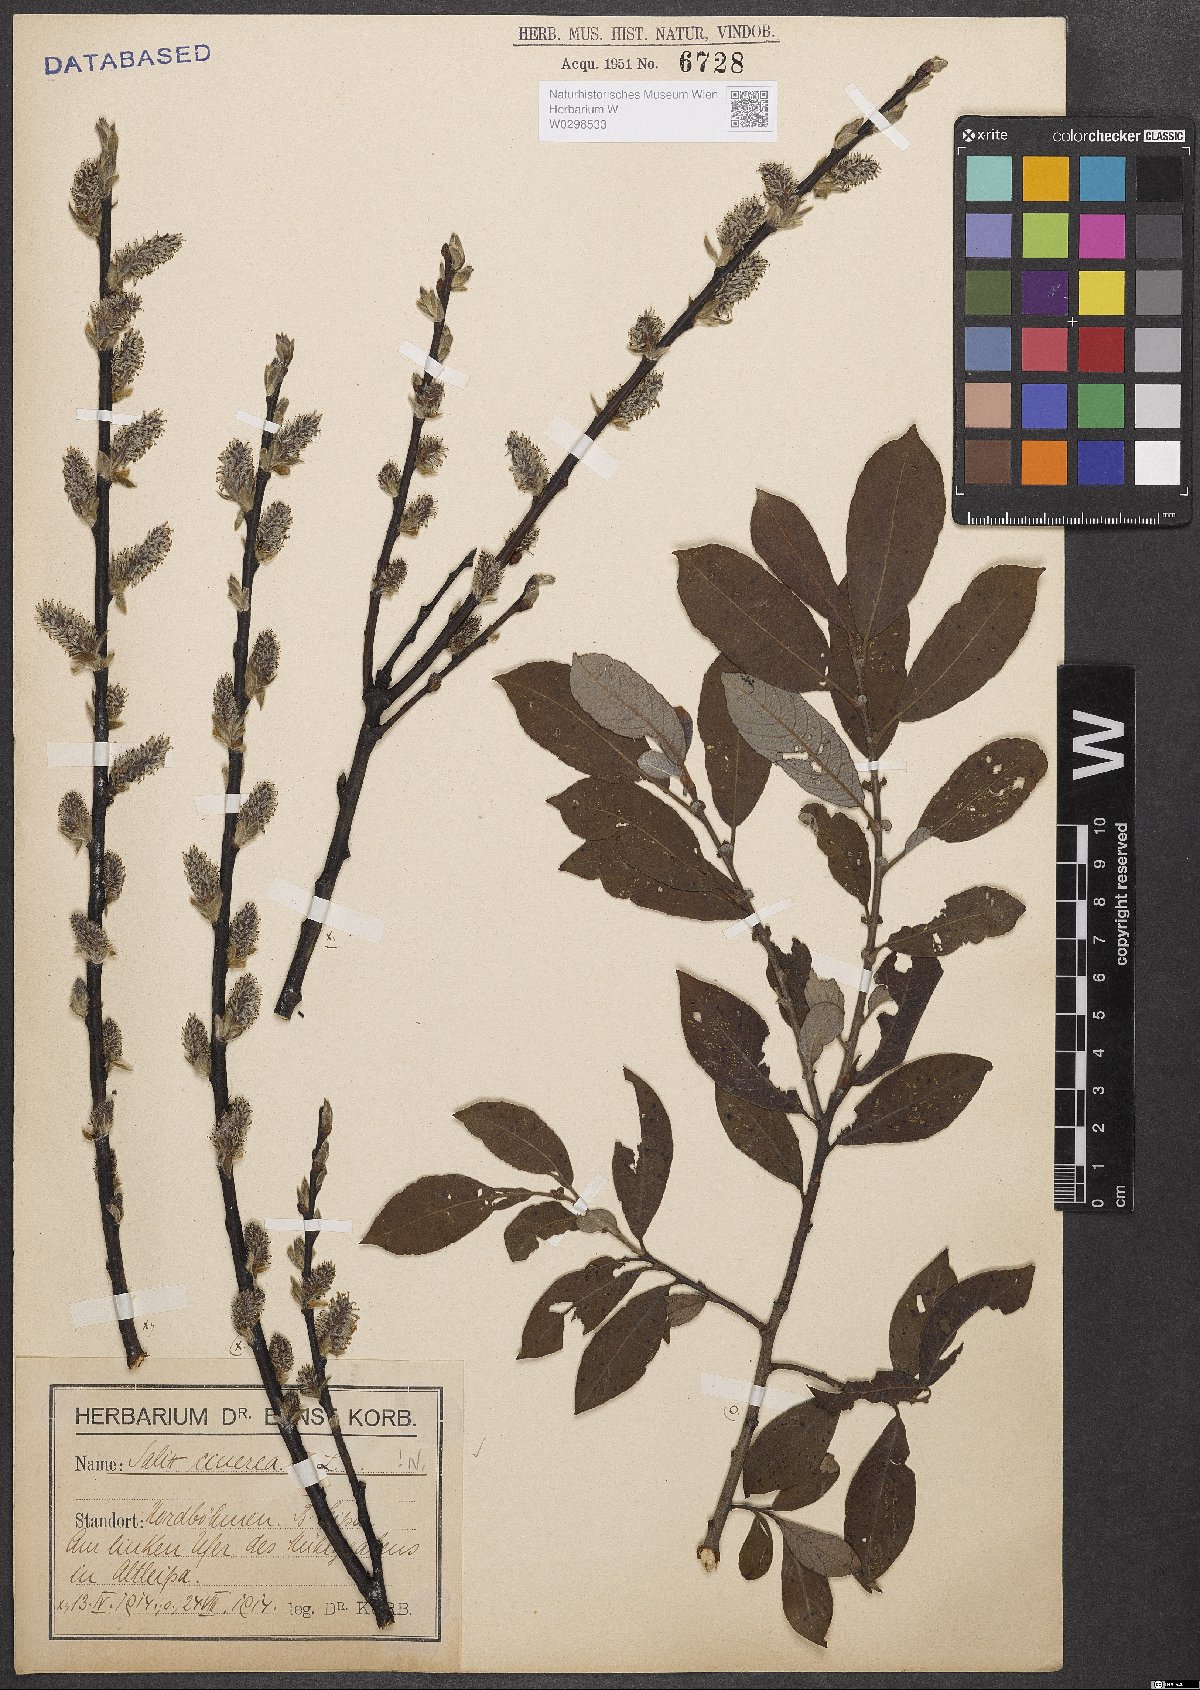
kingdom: Plantae
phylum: Tracheophyta
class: Magnoliopsida
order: Malpighiales
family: Salicaceae
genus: Salix
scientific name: Salix cinerea
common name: Common sallow
